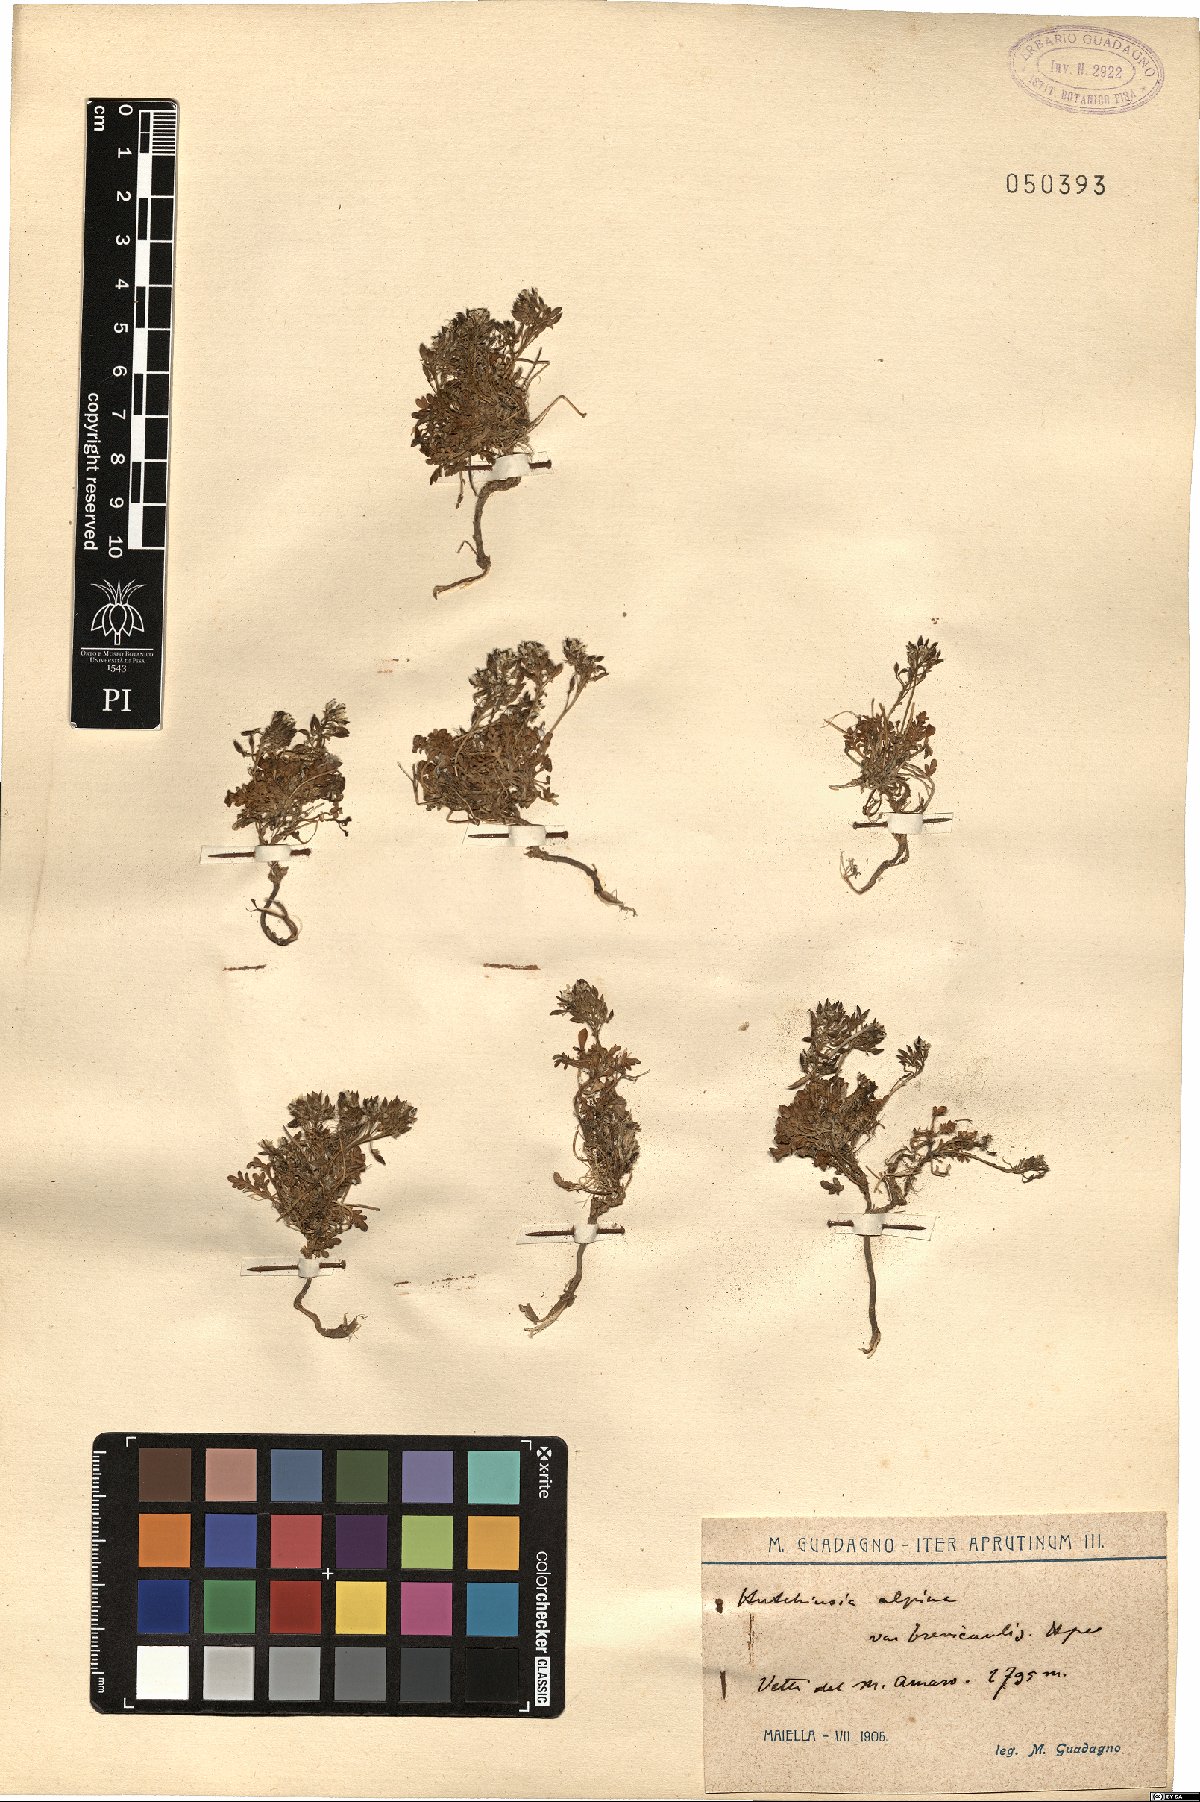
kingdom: Plantae
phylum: Tracheophyta
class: Magnoliopsida
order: Brassicales
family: Brassicaceae
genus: Hornungia
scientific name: Hornungia alpina
